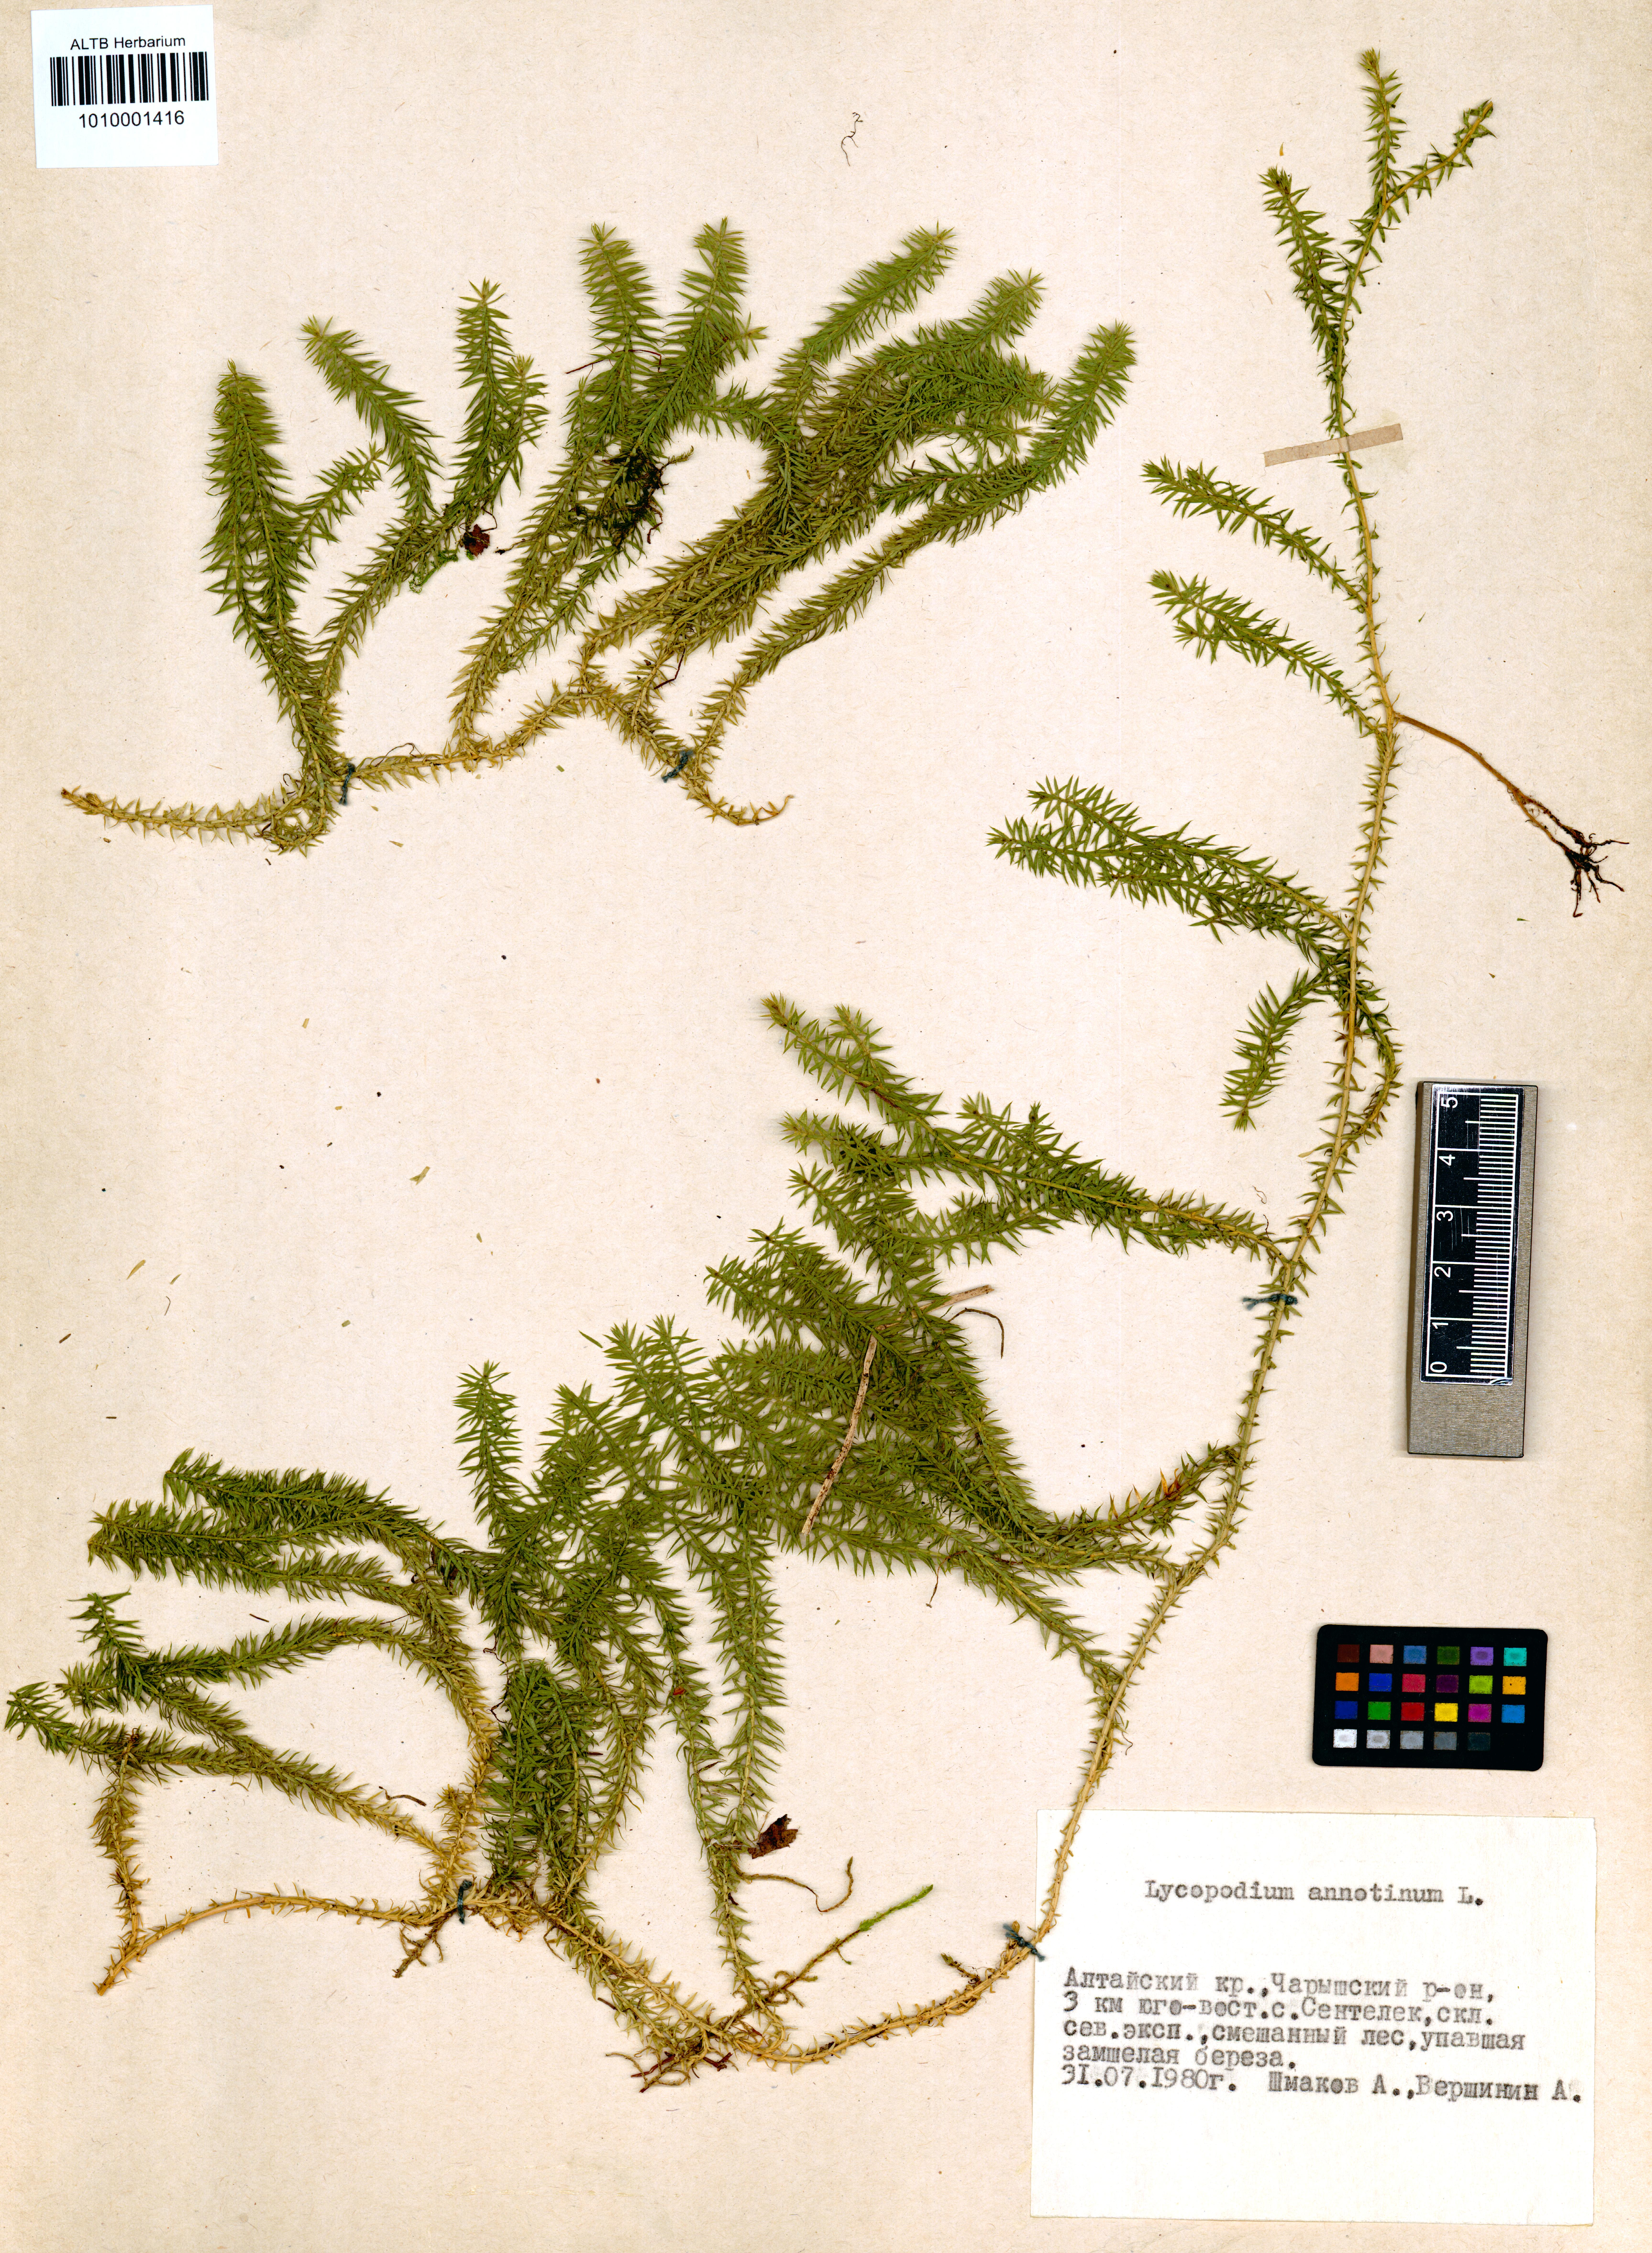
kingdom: Plantae
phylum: Tracheophyta
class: Lycopodiopsida
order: Lycopodiales
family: Lycopodiaceae
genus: Spinulum
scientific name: Spinulum annotinum
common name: Interrupted club-moss
